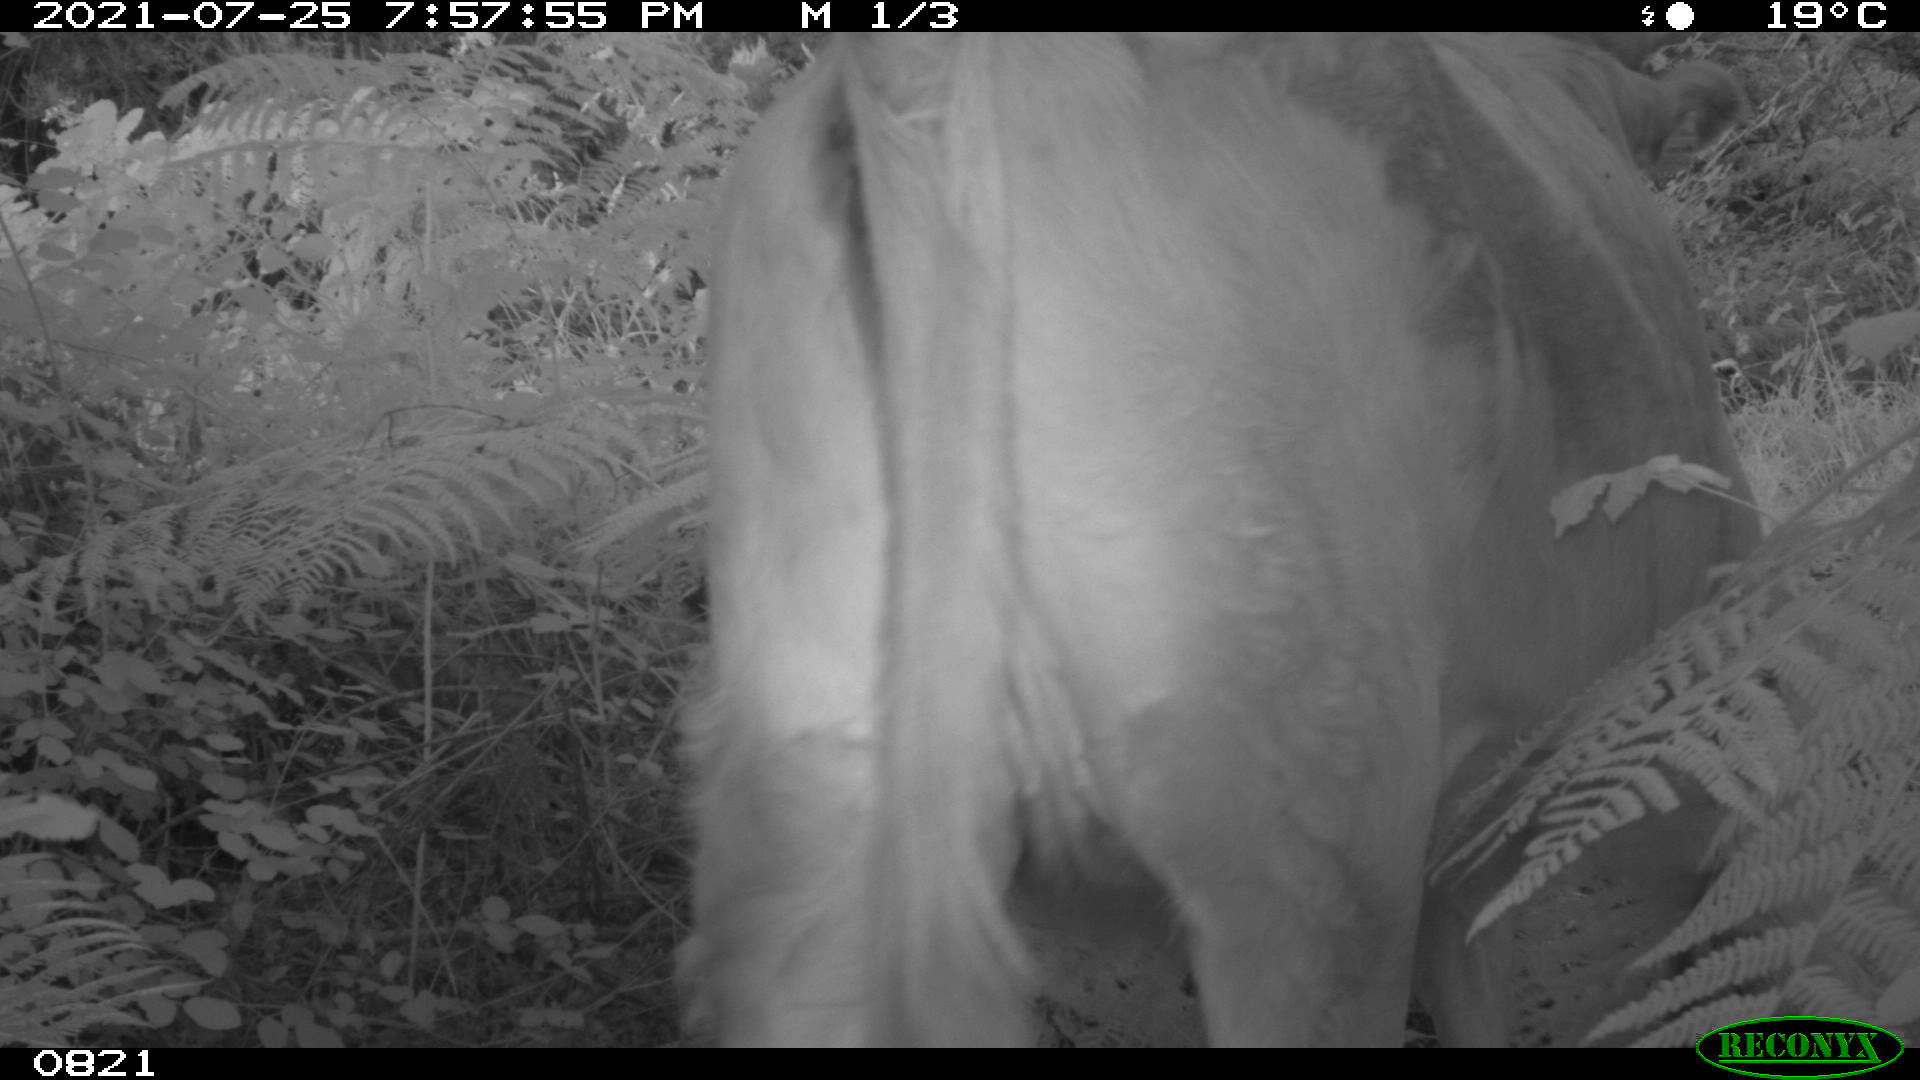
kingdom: Animalia
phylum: Chordata
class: Mammalia
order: Artiodactyla
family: Bovidae
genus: Bos
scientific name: Bos taurus
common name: Domesticated cattle
